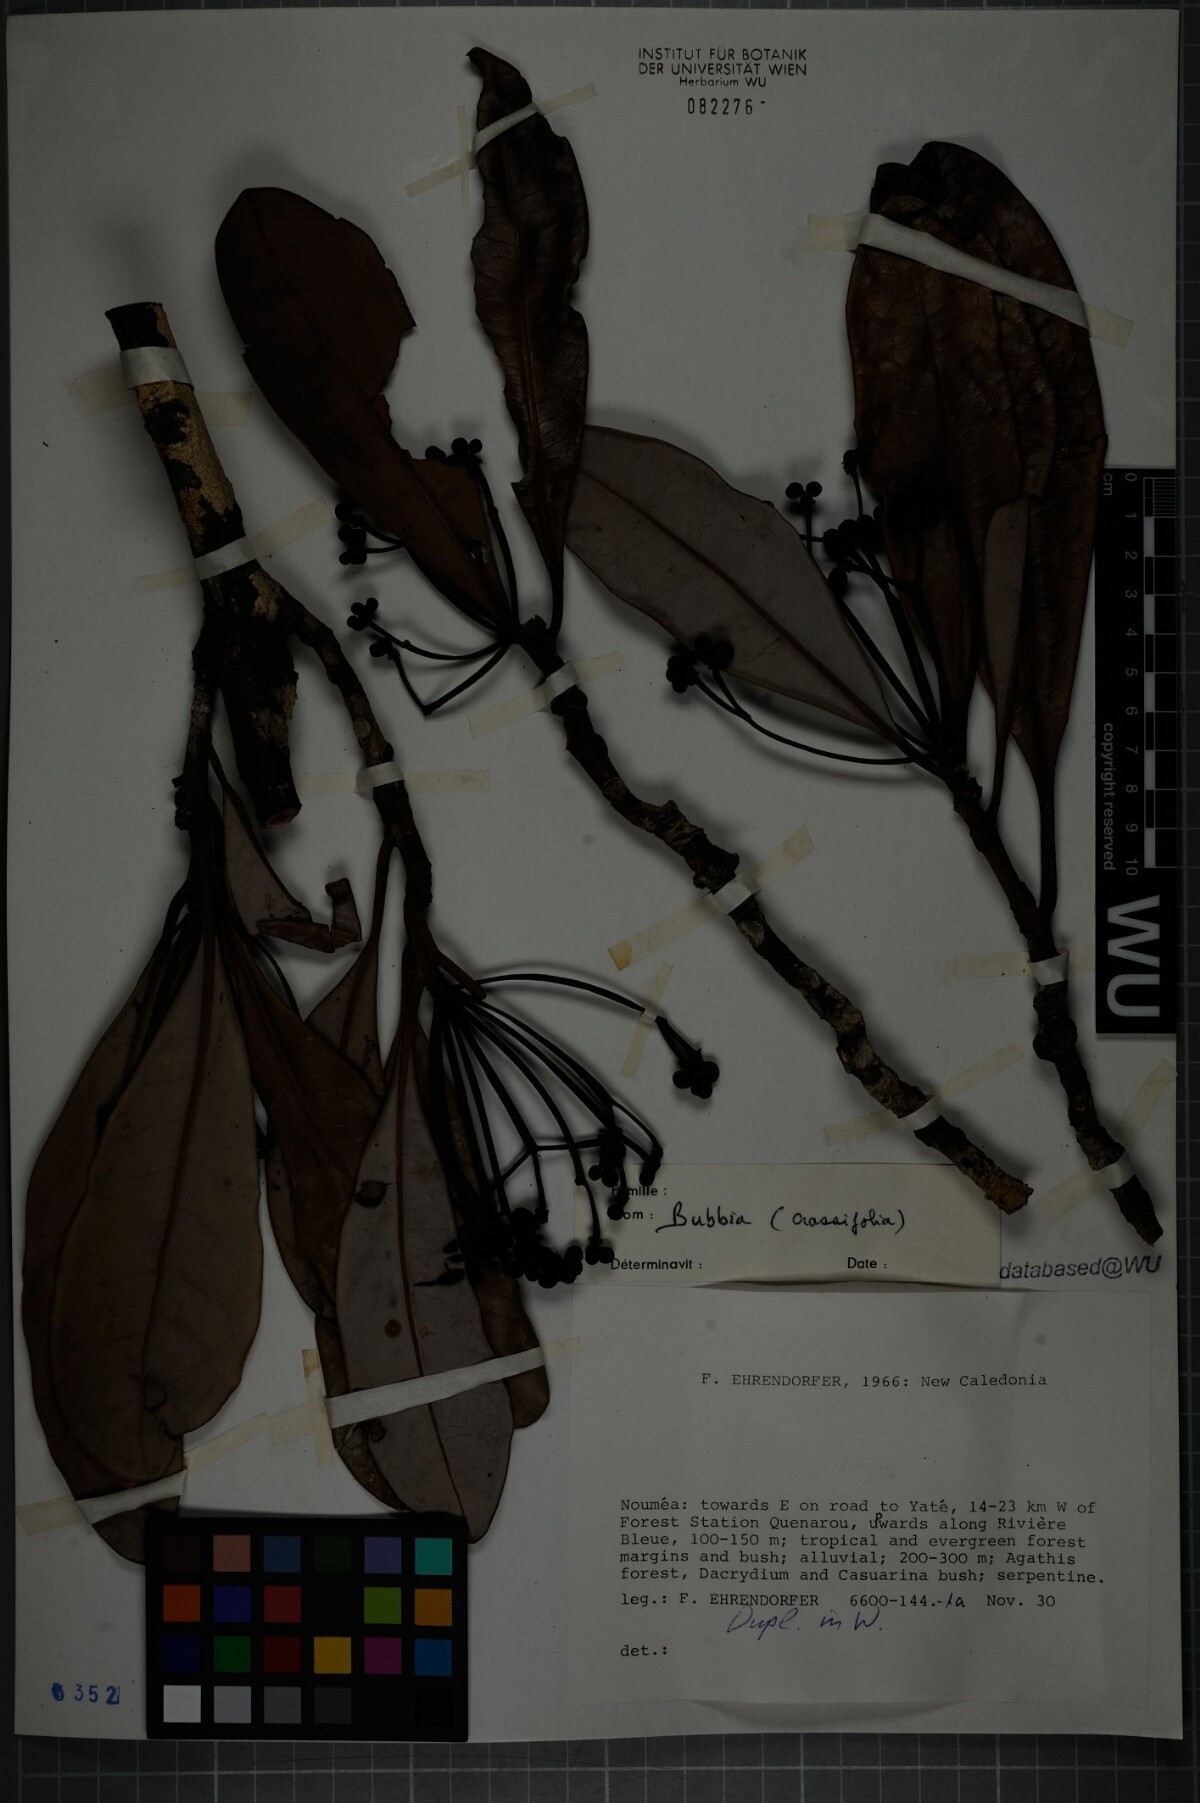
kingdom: Plantae
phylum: Tracheophyta
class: Magnoliopsida
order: Canellales
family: Winteraceae
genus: Zygogynum
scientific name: Zygogynum crassifolium
